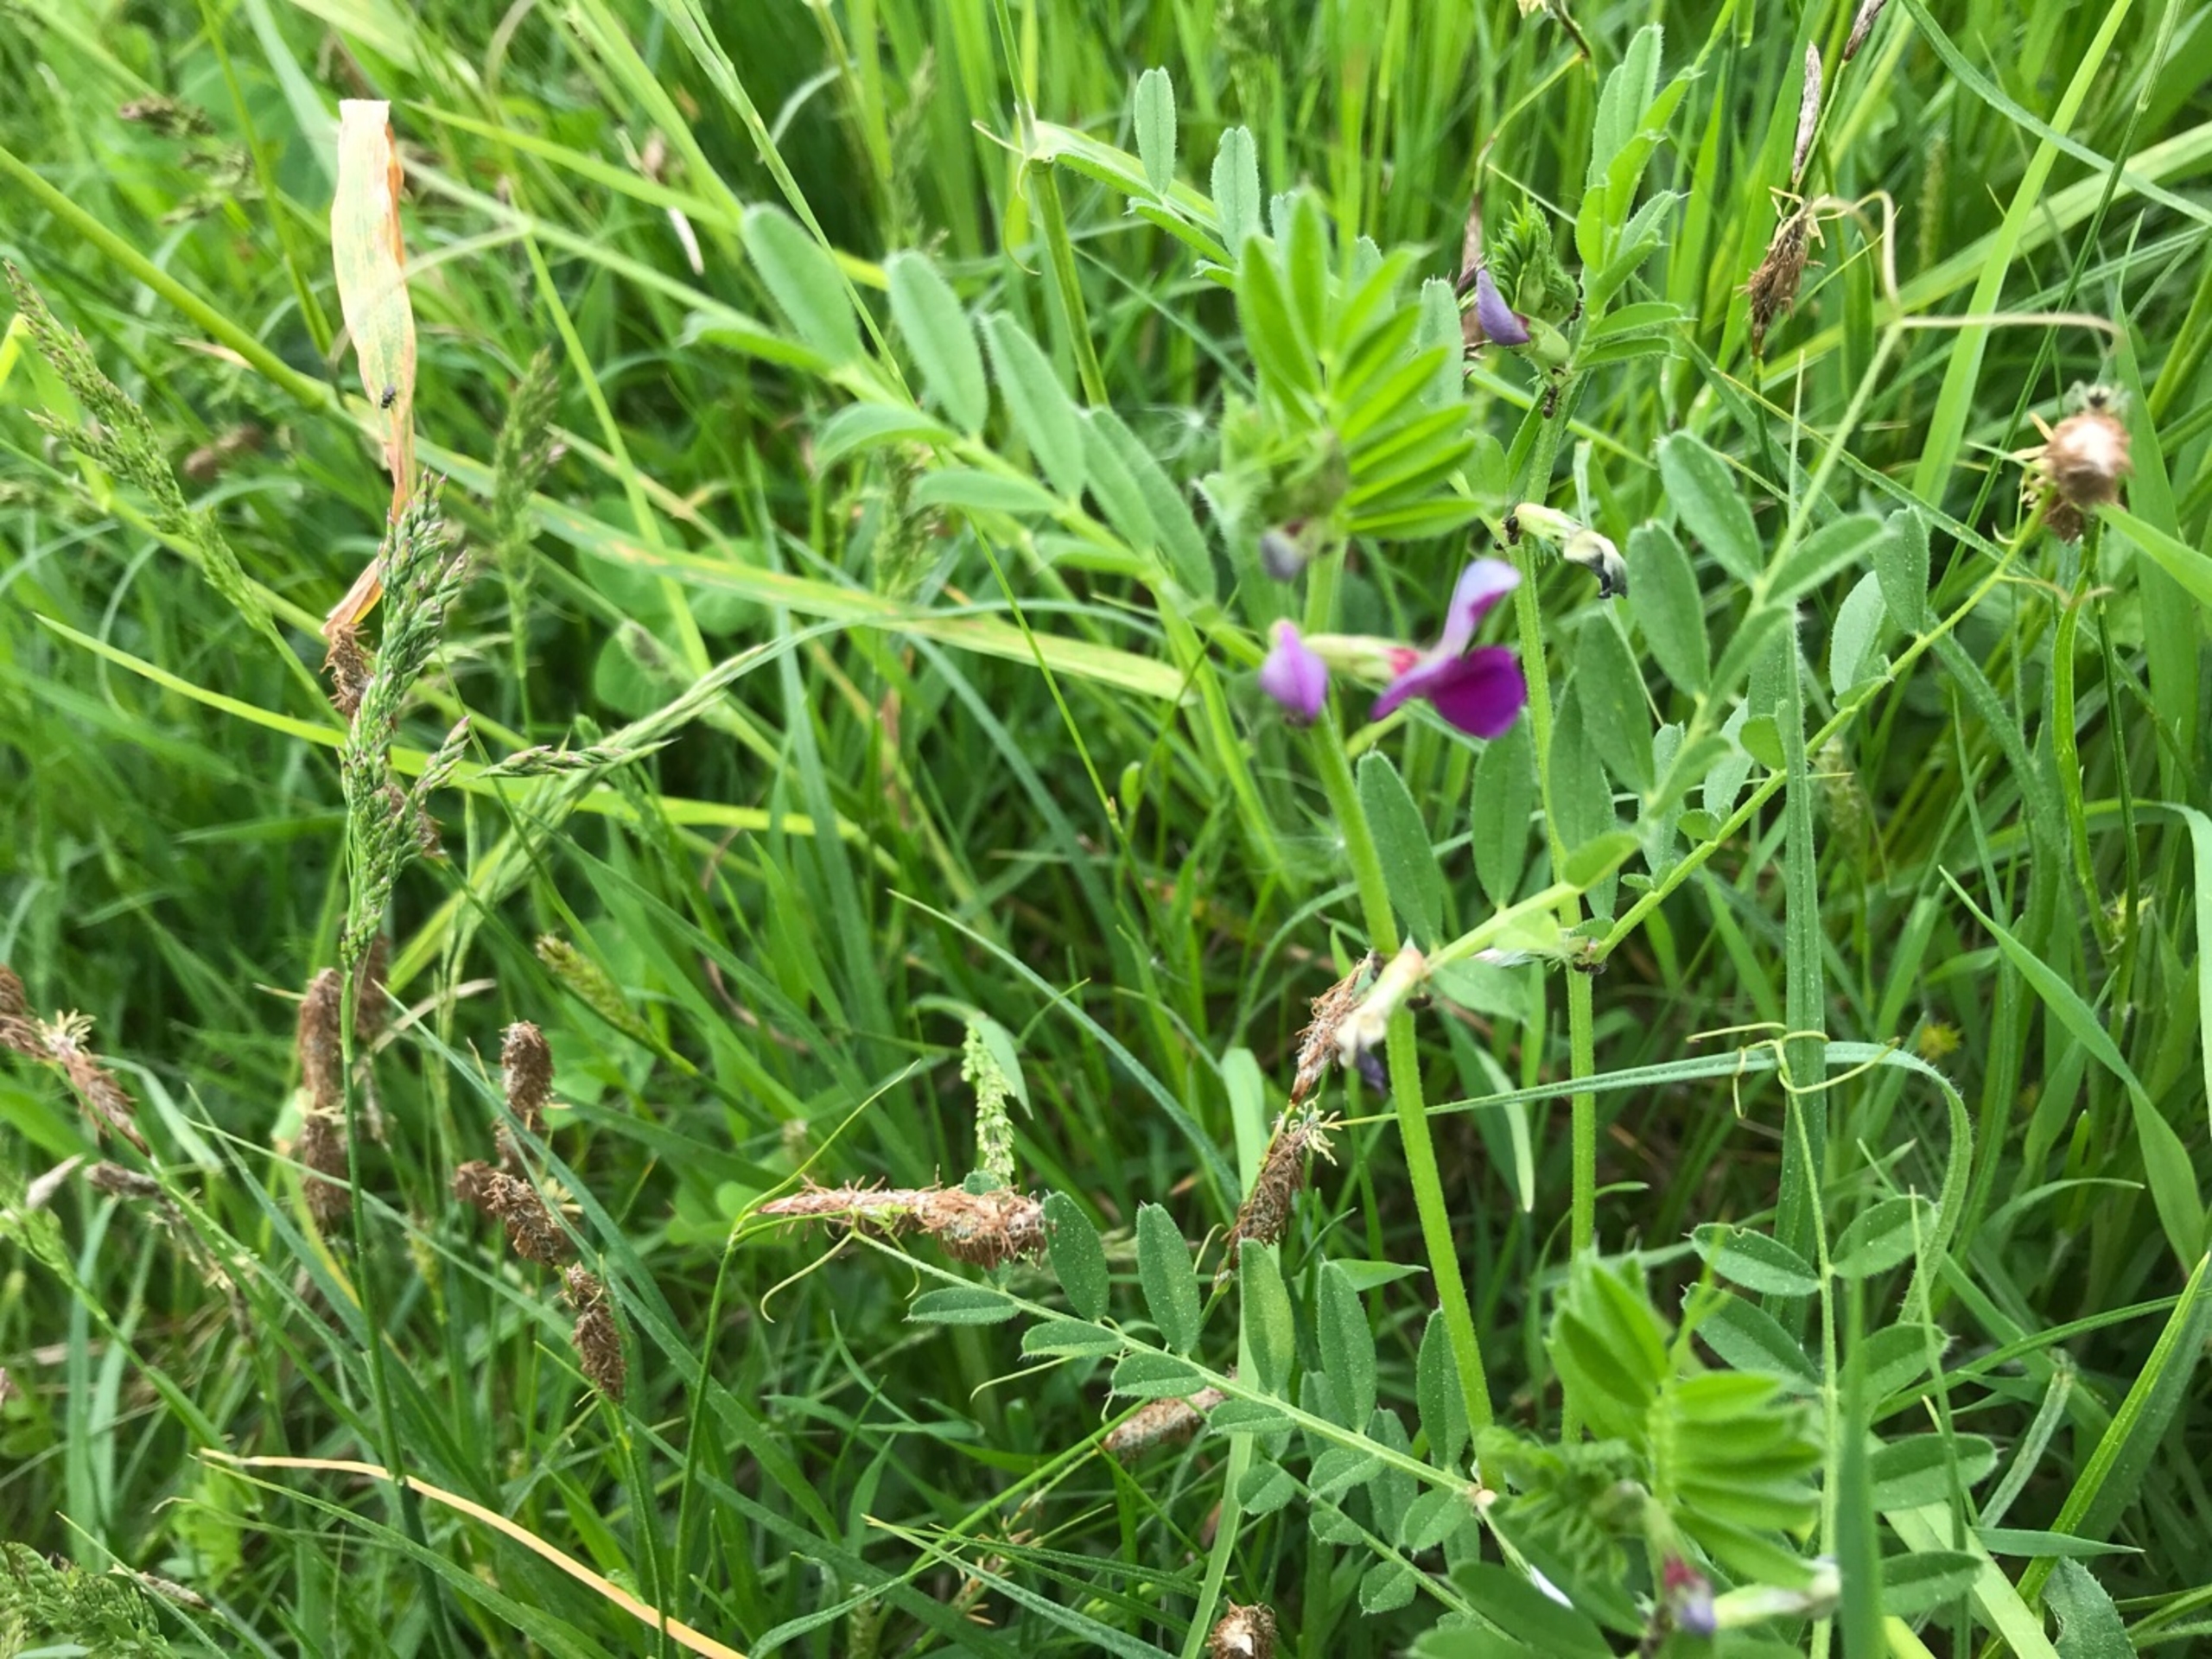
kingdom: Plantae
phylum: Tracheophyta
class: Magnoliopsida
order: Fabales
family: Fabaceae
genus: Vicia
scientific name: Vicia sativa
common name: Foder-vikke
